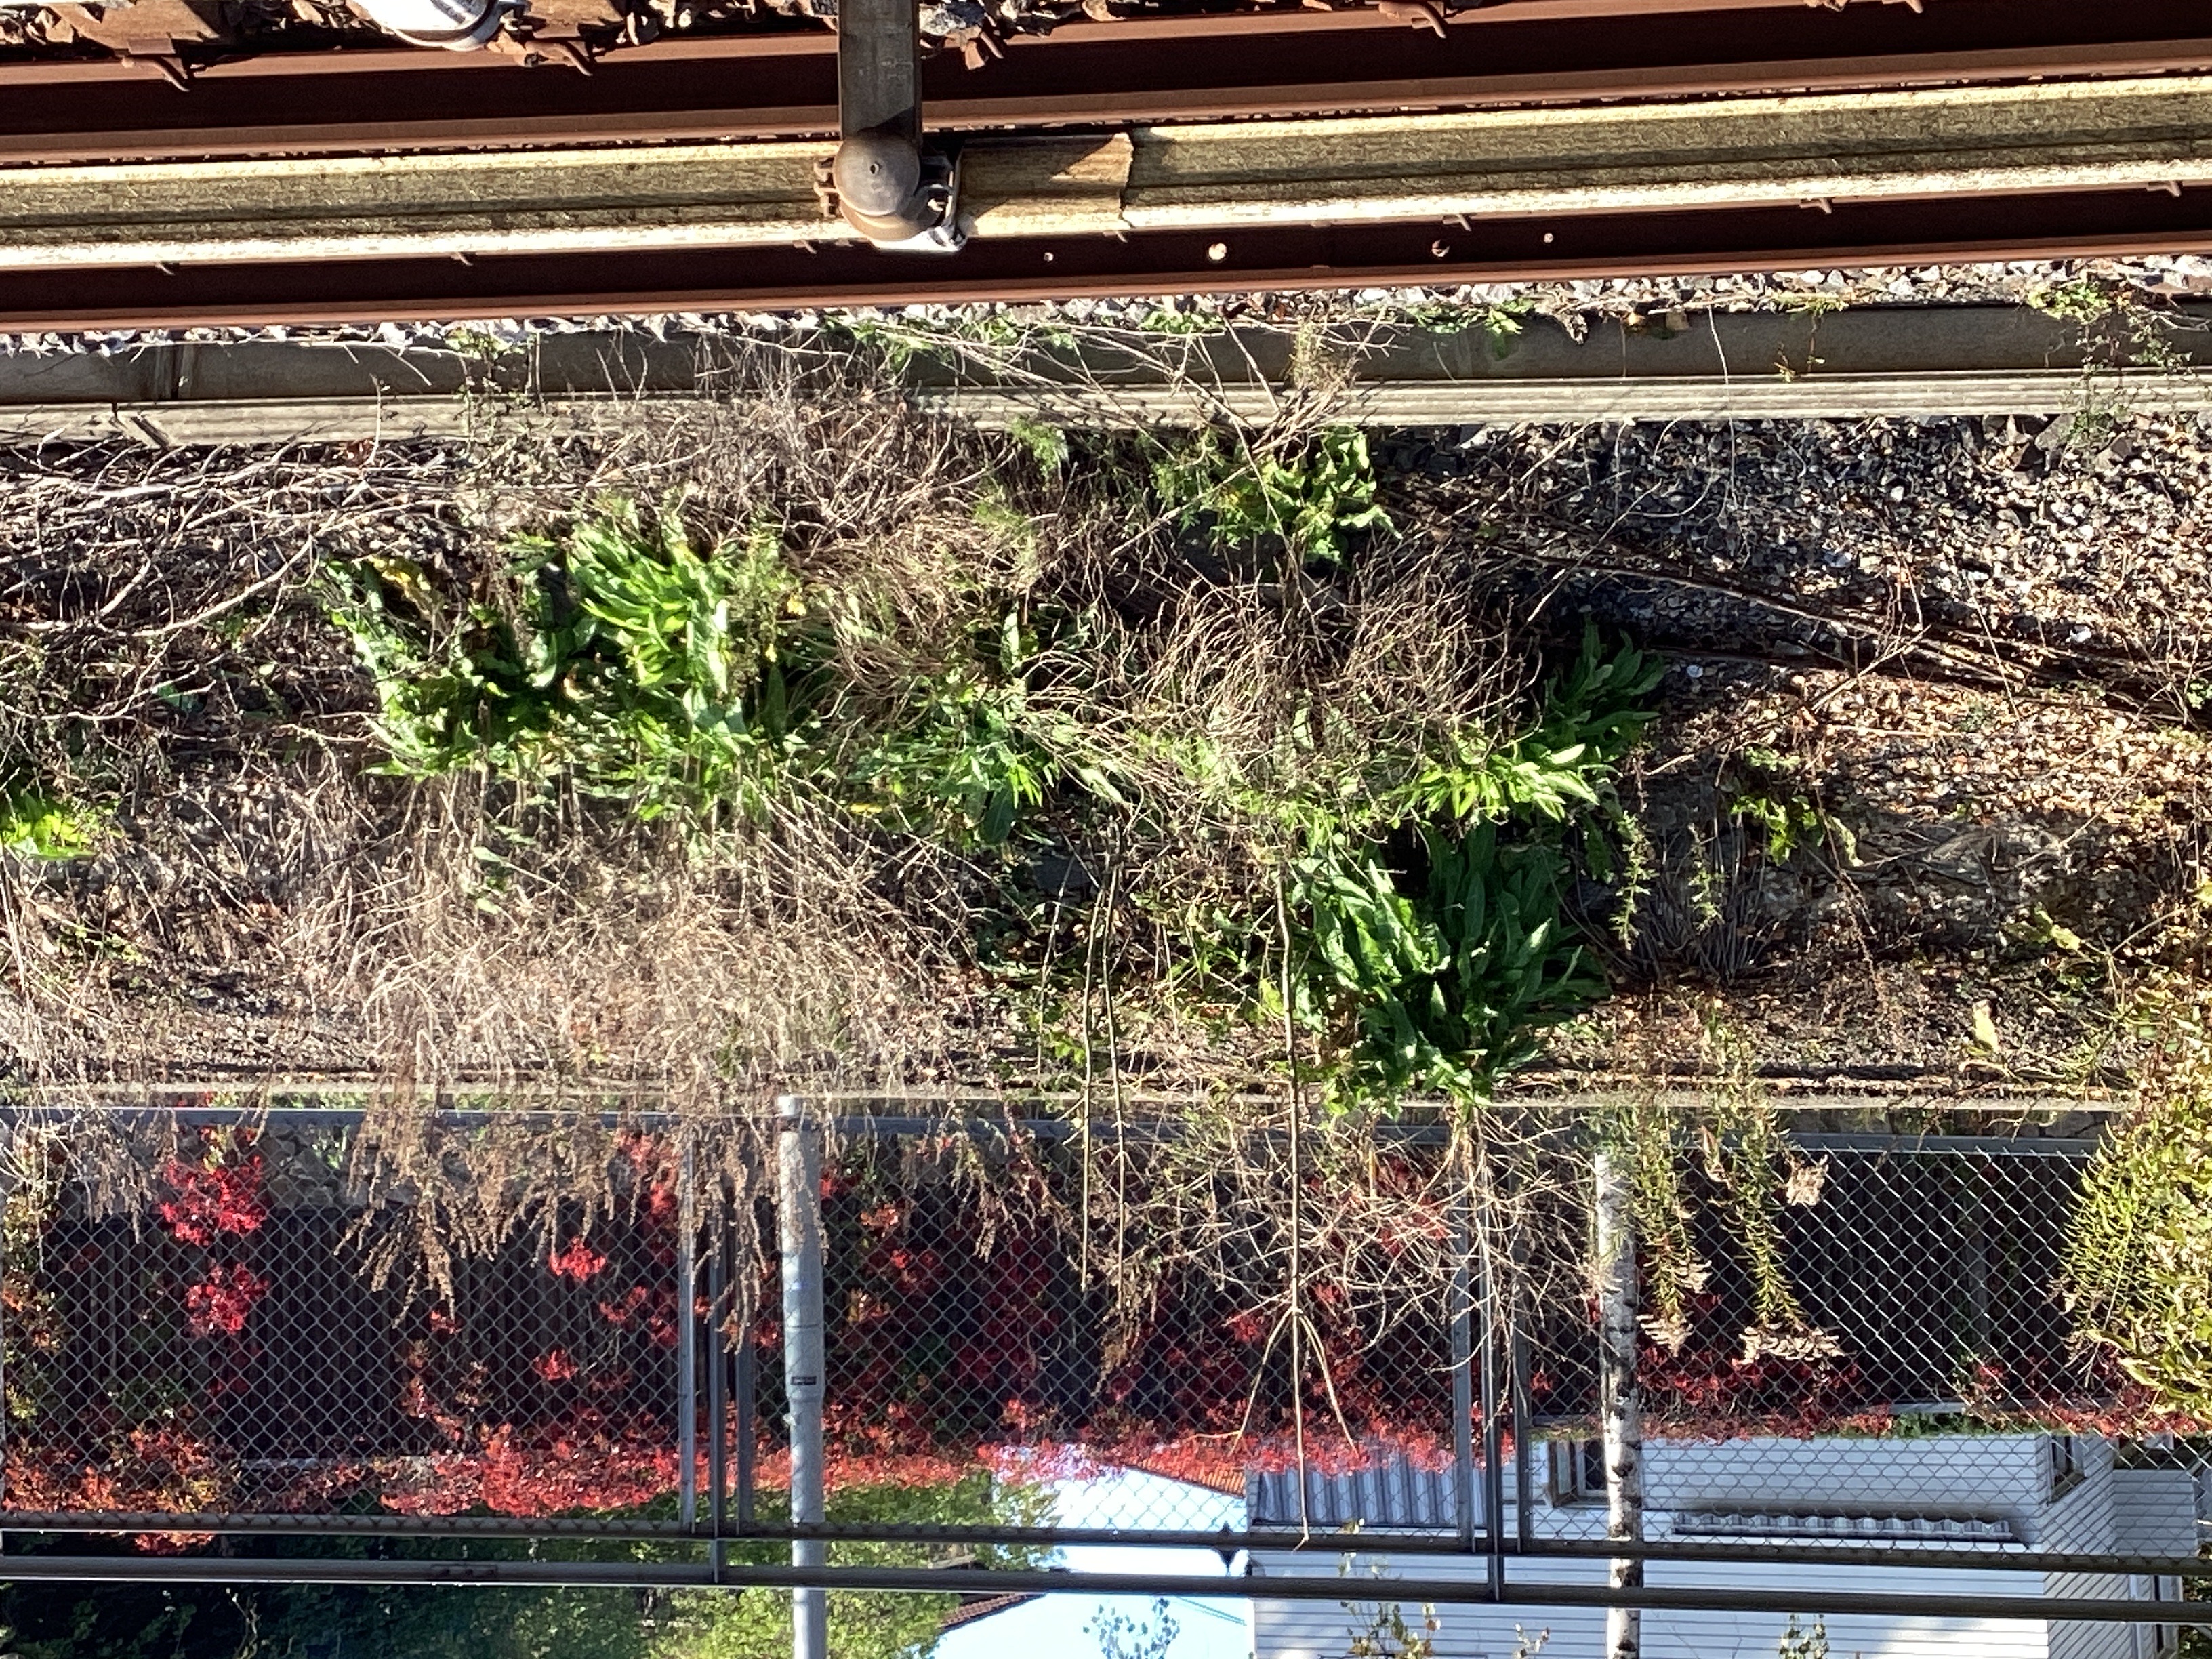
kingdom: Plantae
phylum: Tracheophyta
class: Magnoliopsida
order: Brassicales
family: Brassicaceae
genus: Bunias
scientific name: Bunias orientalis
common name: russekål
